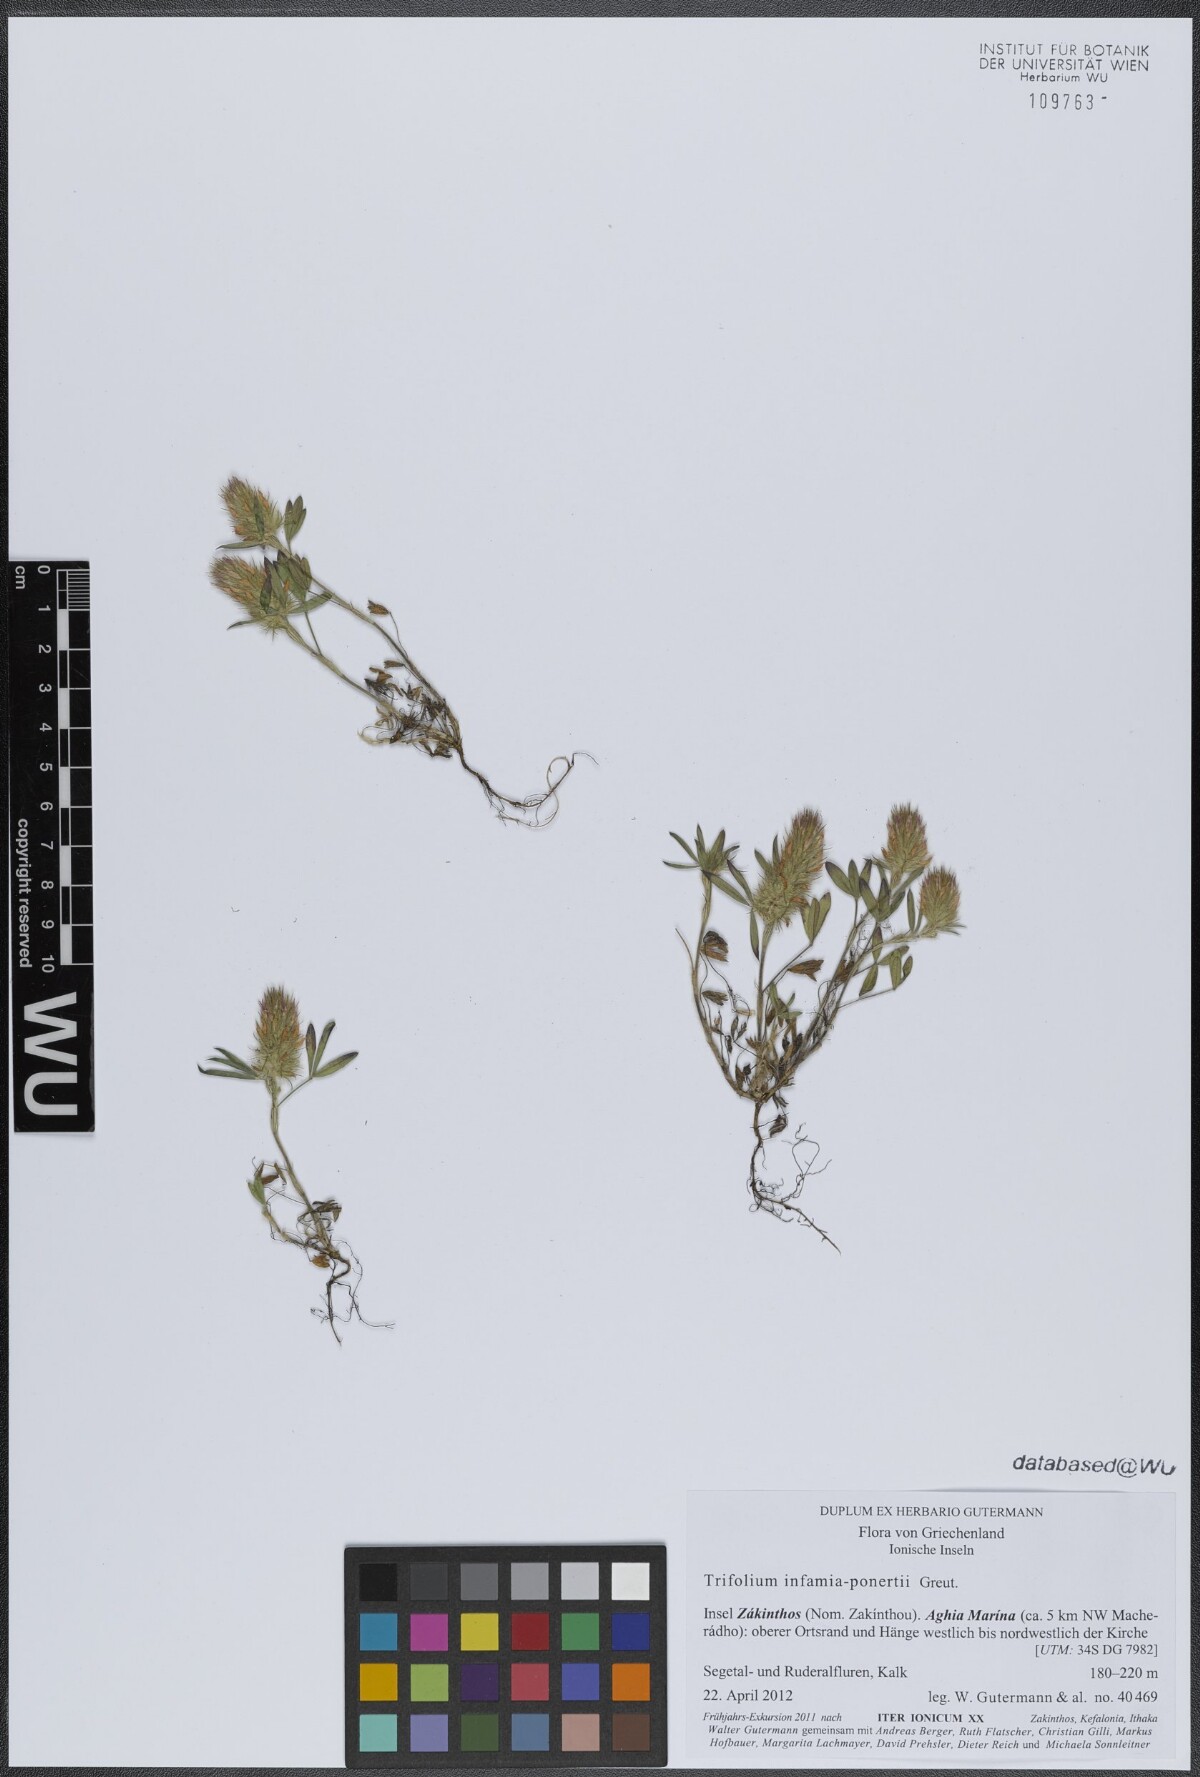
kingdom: Plantae
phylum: Tracheophyta
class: Magnoliopsida
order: Fabales
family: Fabaceae
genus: Trifolium
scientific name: Trifolium infamia-ponertii
